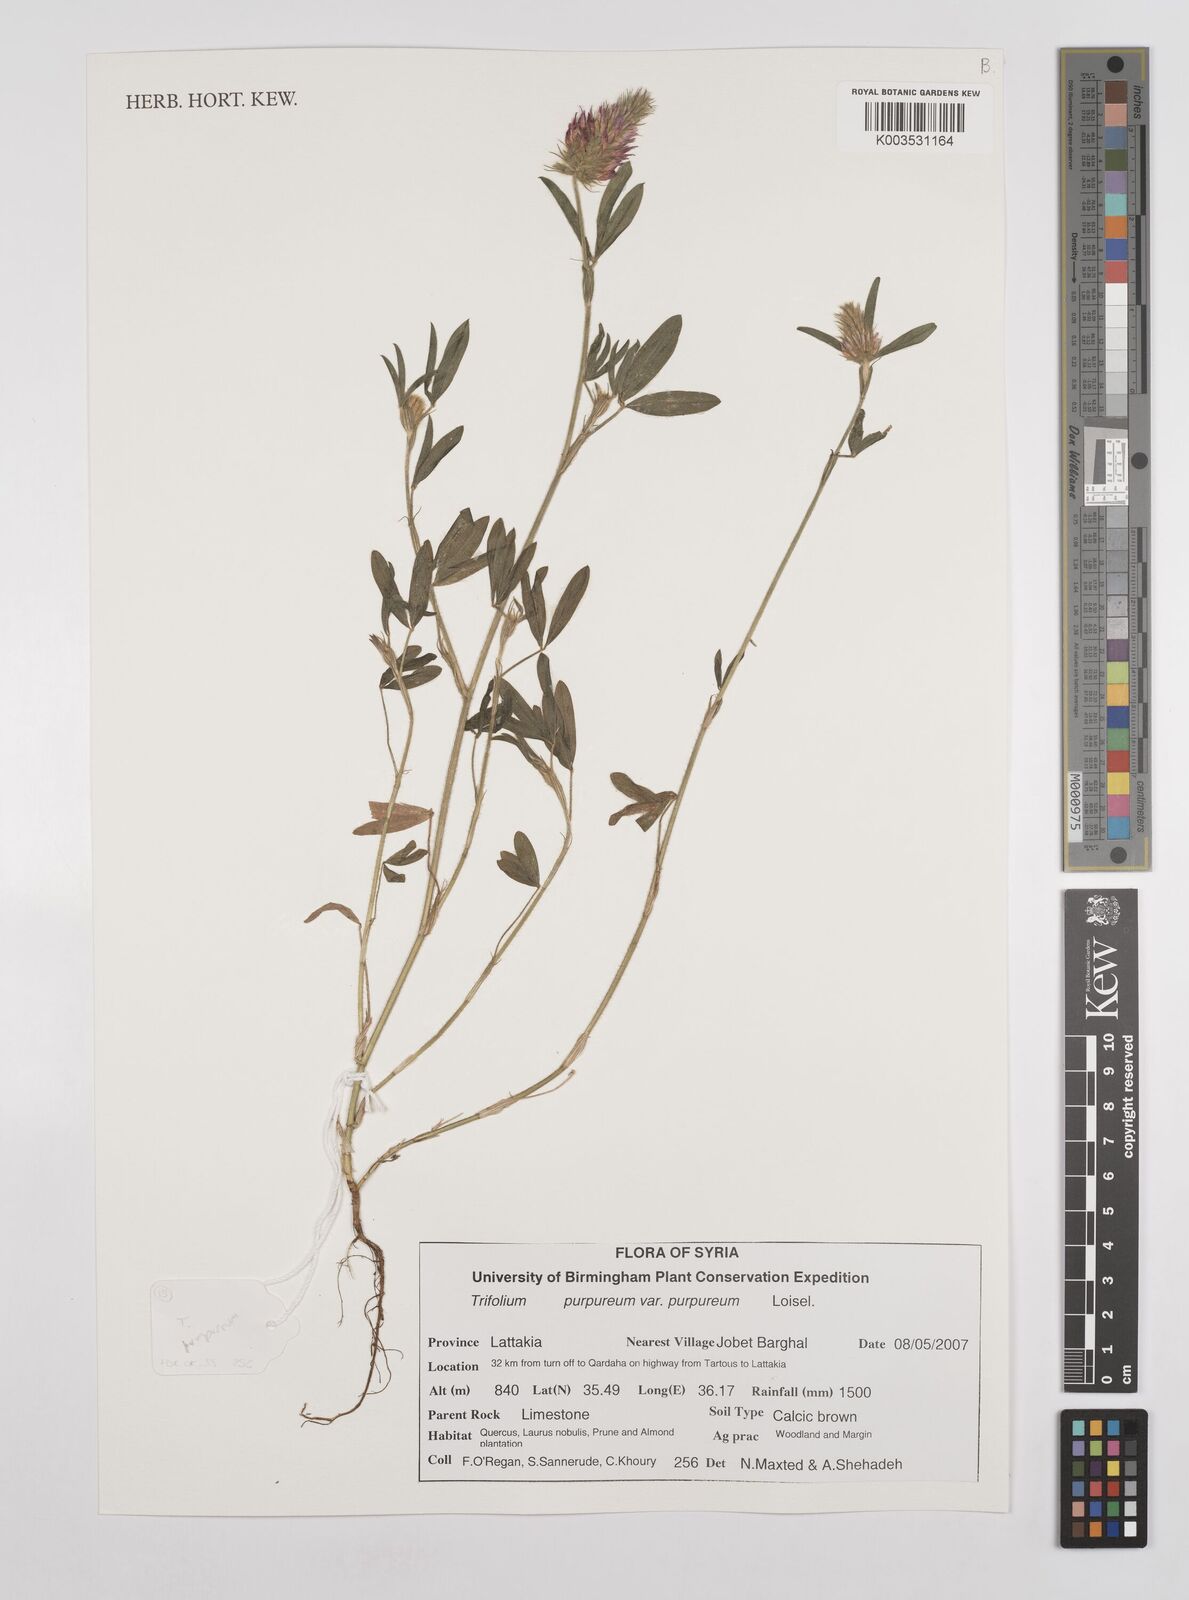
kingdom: Plantae
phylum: Tracheophyta
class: Magnoliopsida
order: Fabales
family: Fabaceae
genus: Trifolium
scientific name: Trifolium purpureum
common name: Purple clover
